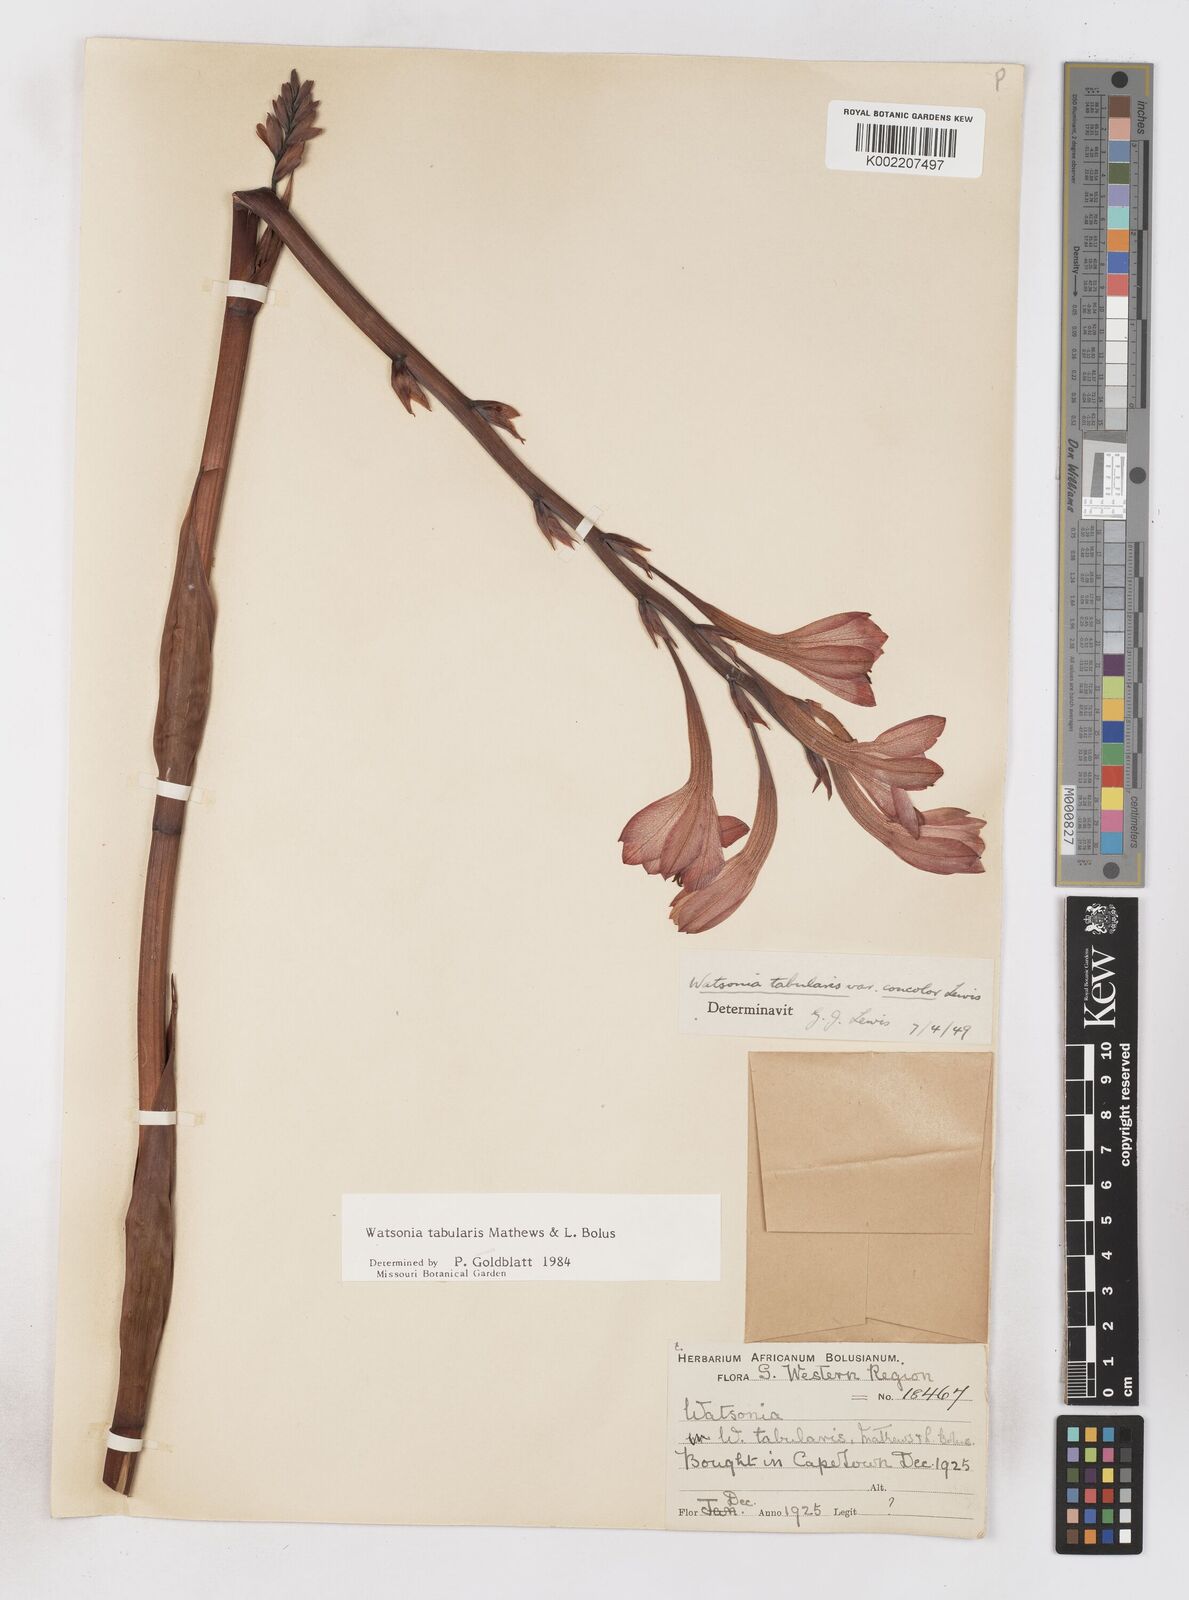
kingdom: Plantae
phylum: Tracheophyta
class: Liliopsida
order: Asparagales
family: Iridaceae
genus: Watsonia
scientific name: Watsonia tabularis
